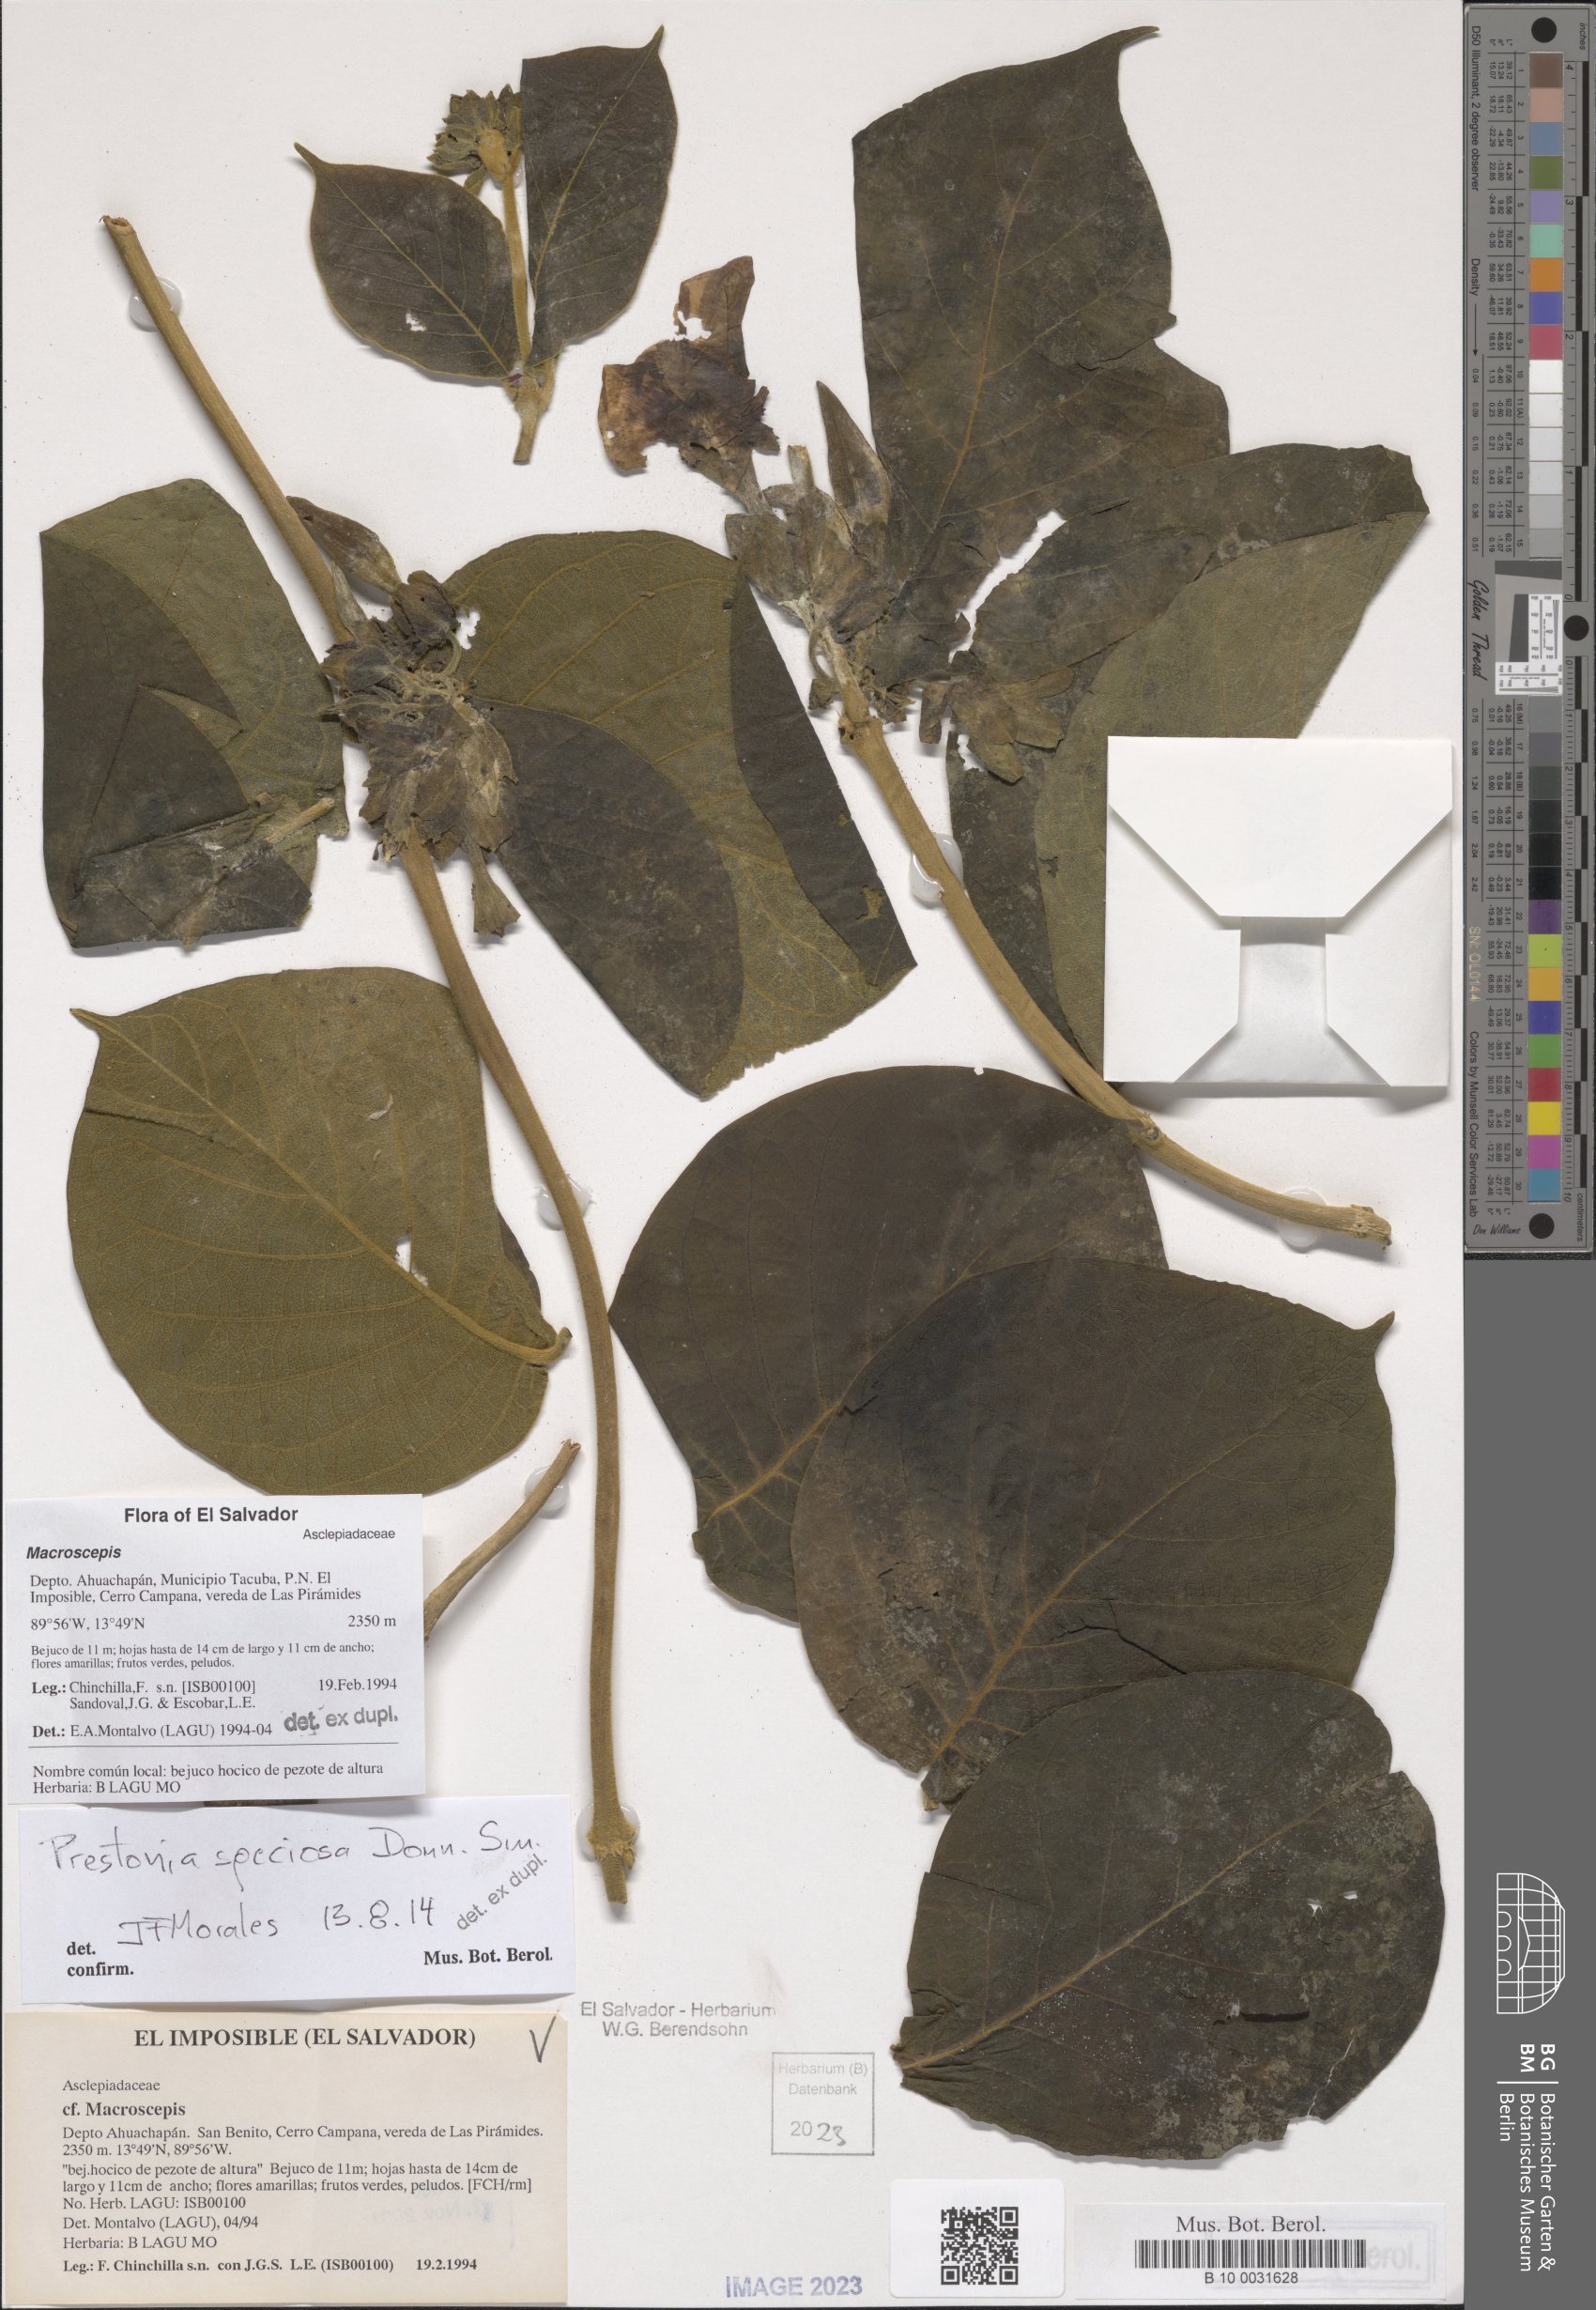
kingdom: Plantae
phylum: Tracheophyta
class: Magnoliopsida
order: Gentianales
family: Apocynaceae
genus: Macroscepis
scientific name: Macroscepis
